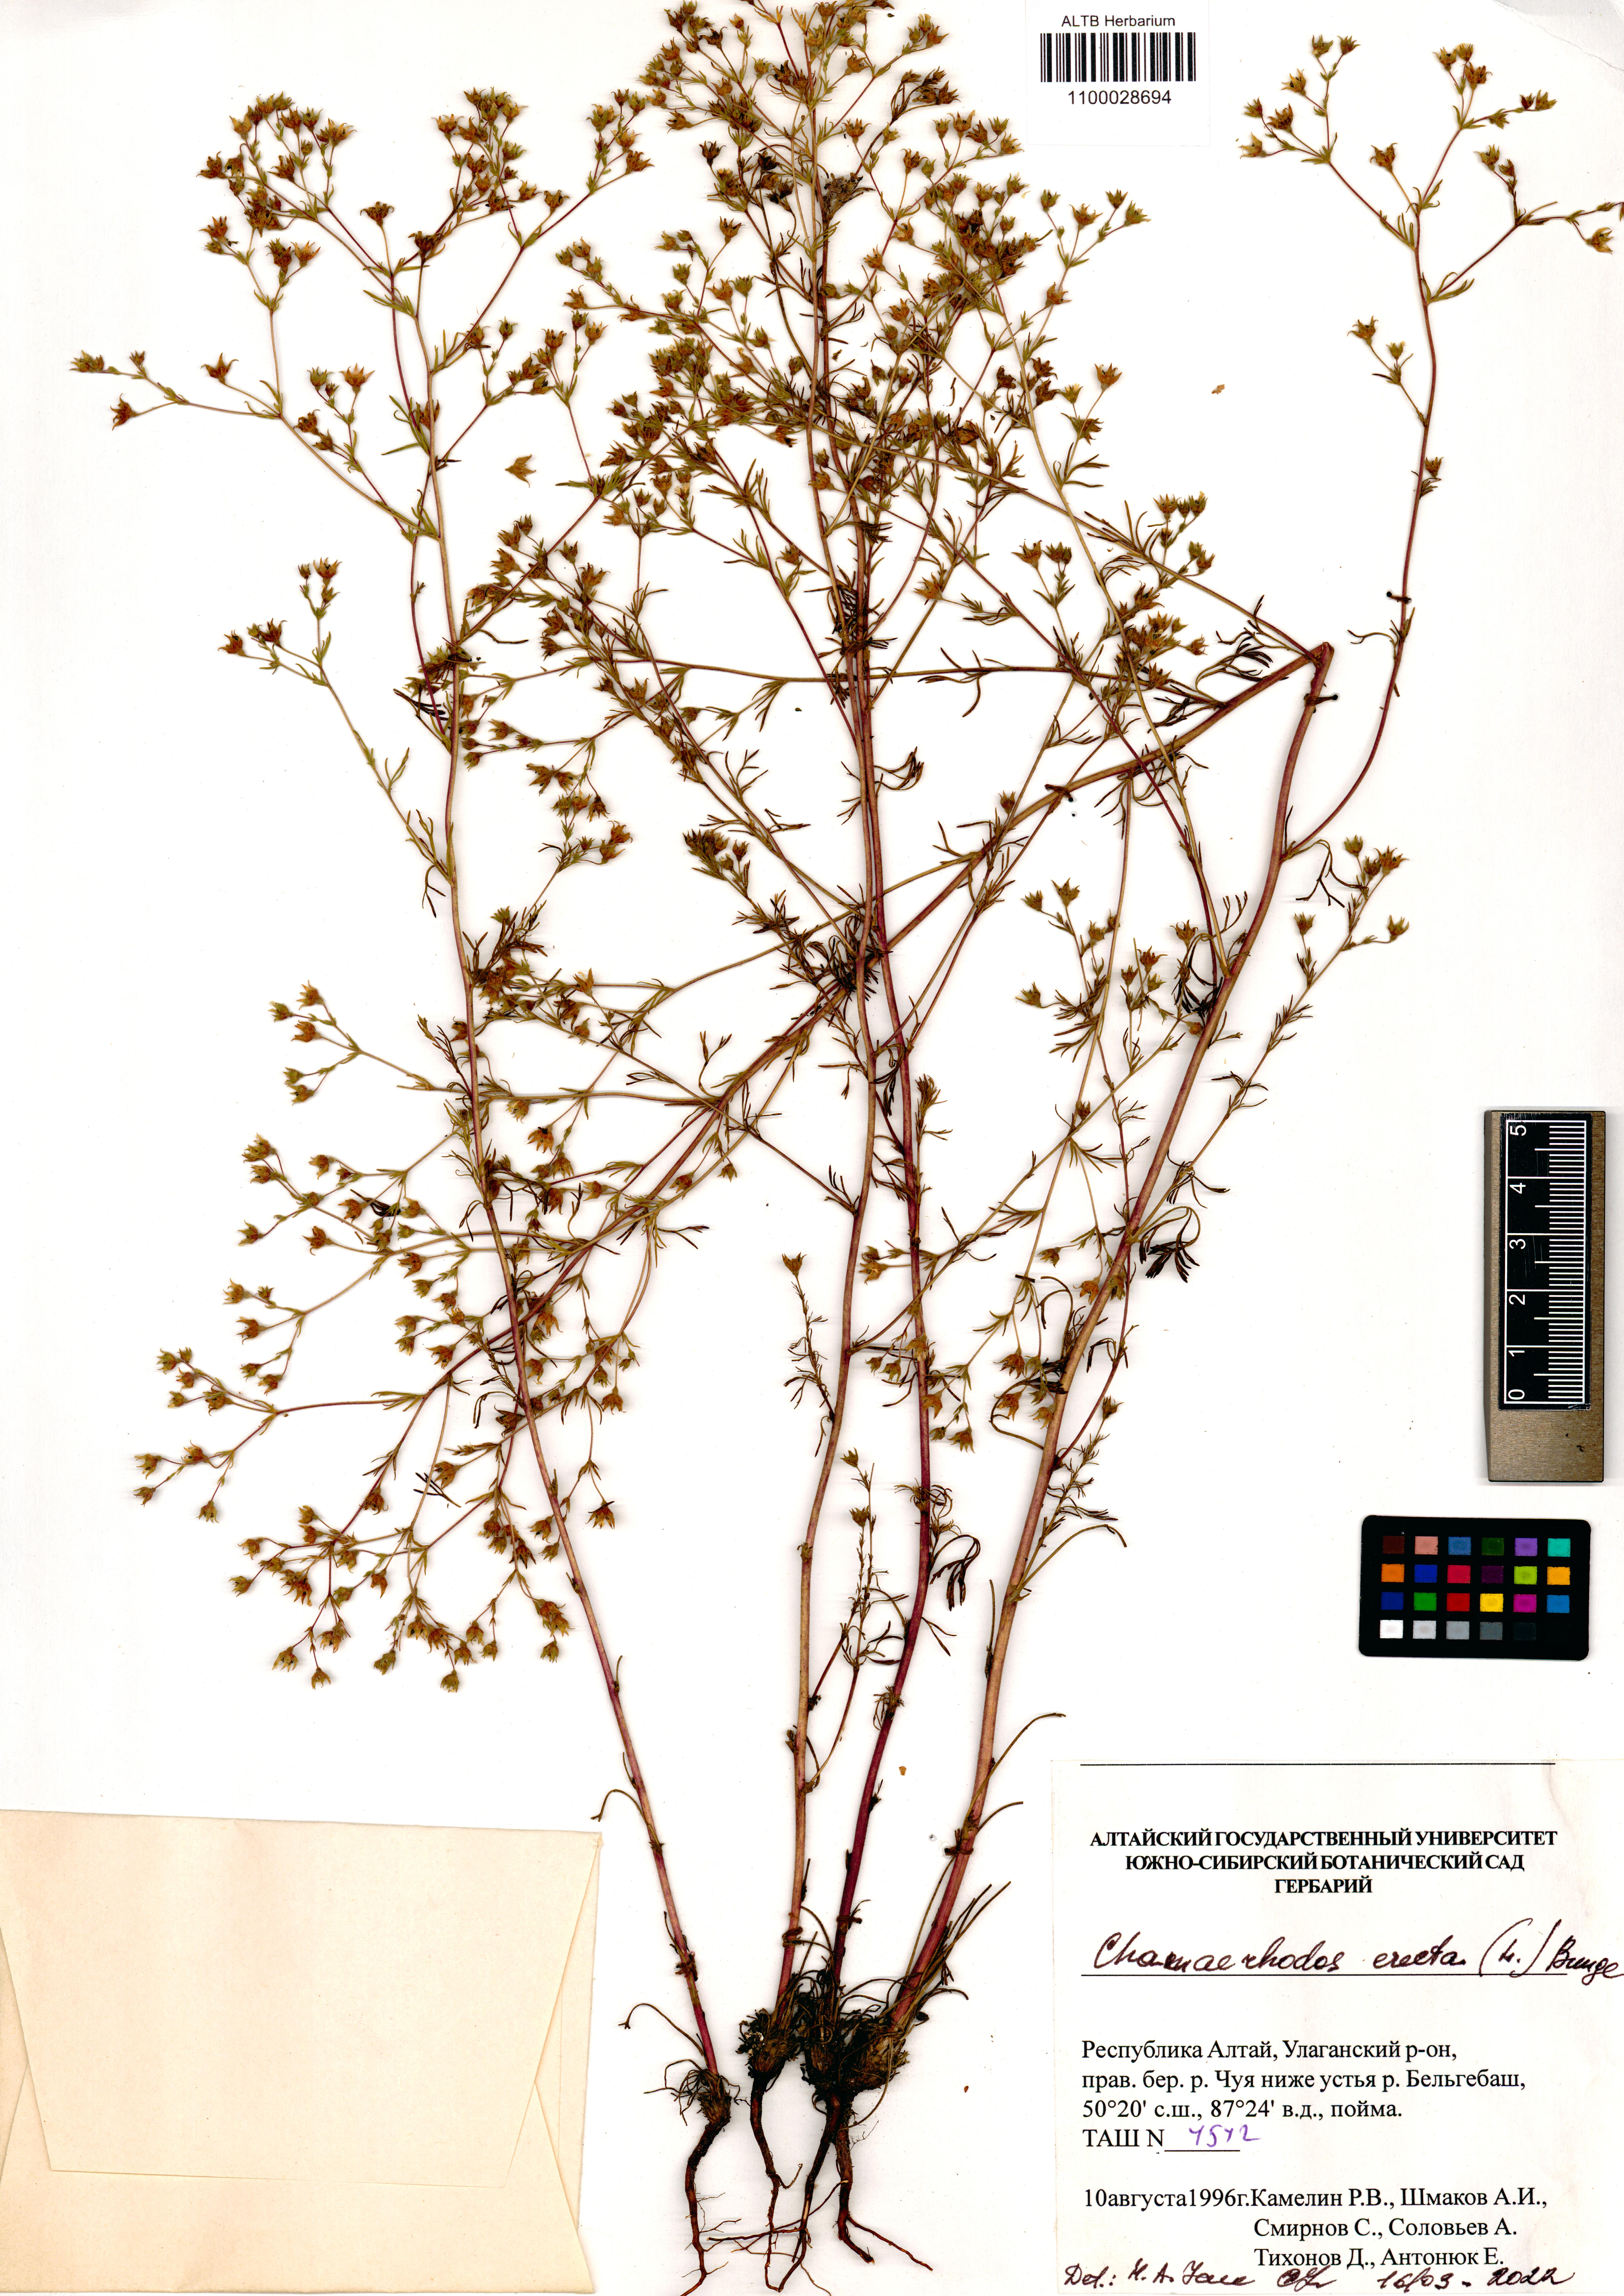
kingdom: Plantae
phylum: Tracheophyta
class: Magnoliopsida
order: Rosales
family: Rosaceae
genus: Chamaerhodos
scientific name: Chamaerhodos erecta
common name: American chamaerhodos
